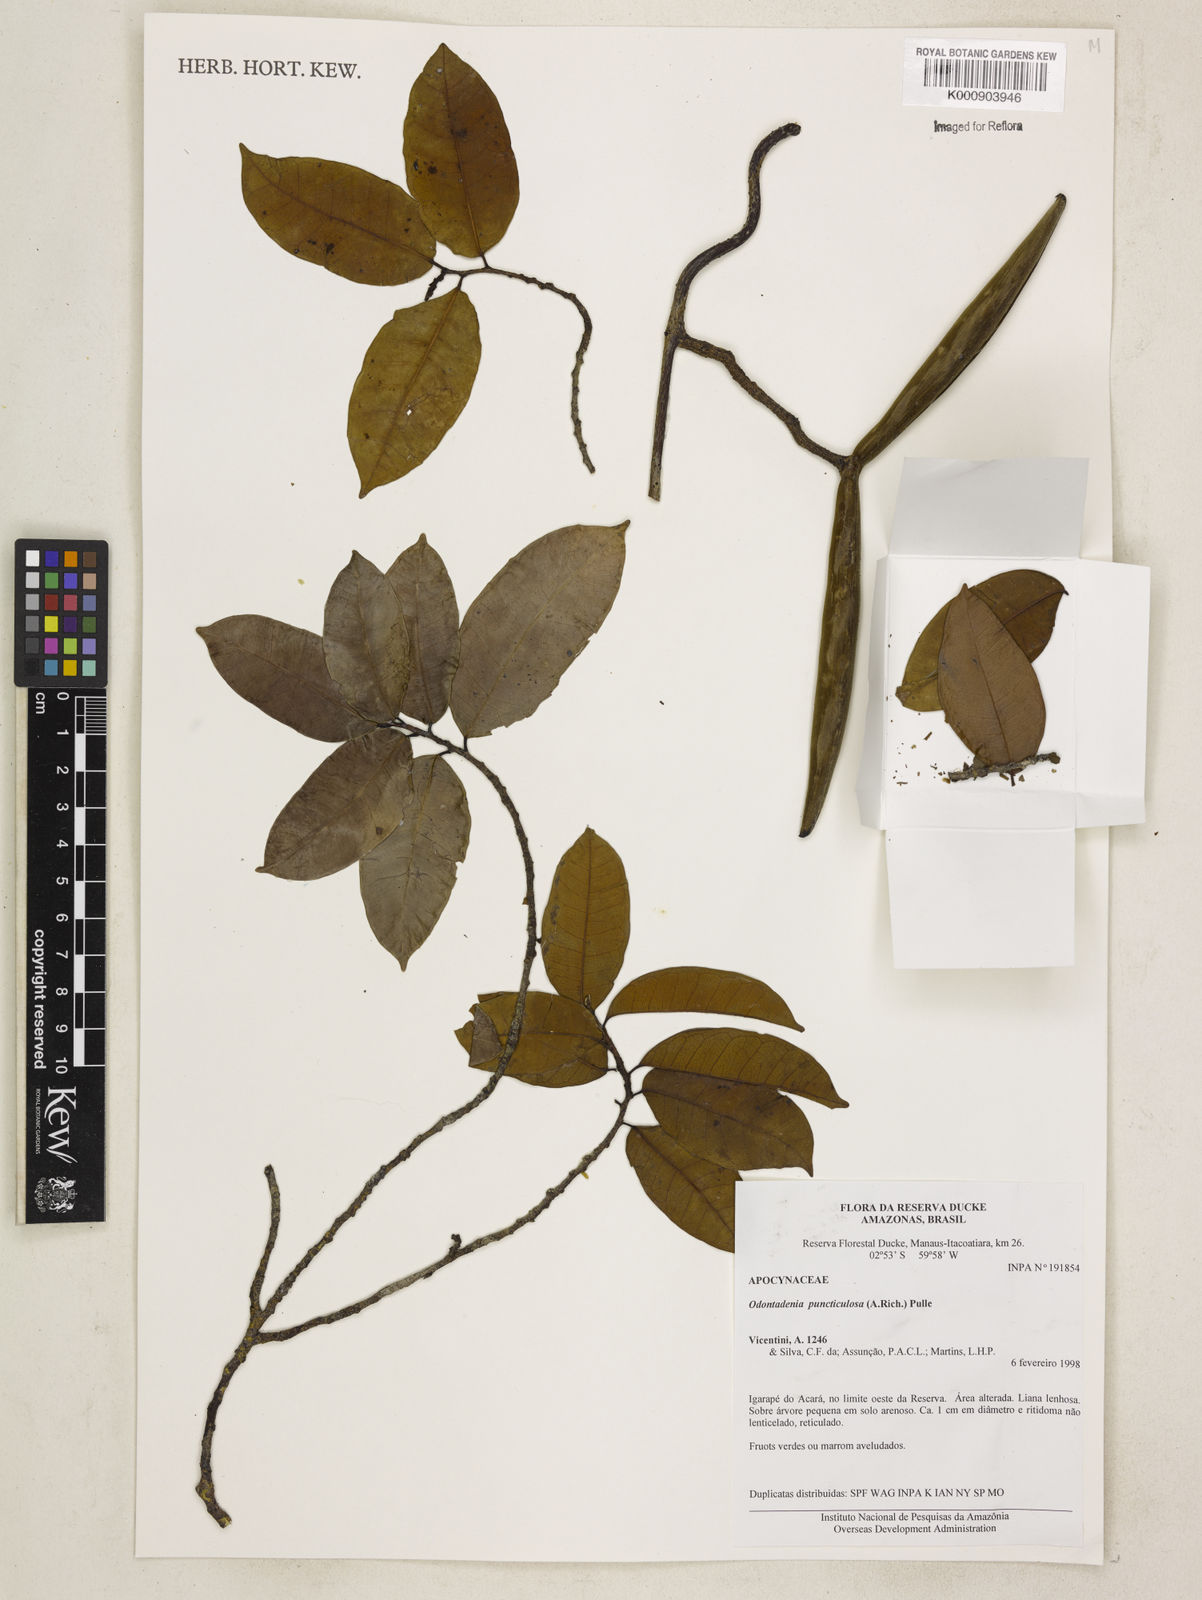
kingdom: Plantae
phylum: Tracheophyta
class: Magnoliopsida
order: Gentianales
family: Apocynaceae
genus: Odontadenia
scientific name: Odontadenia puncticulosa
